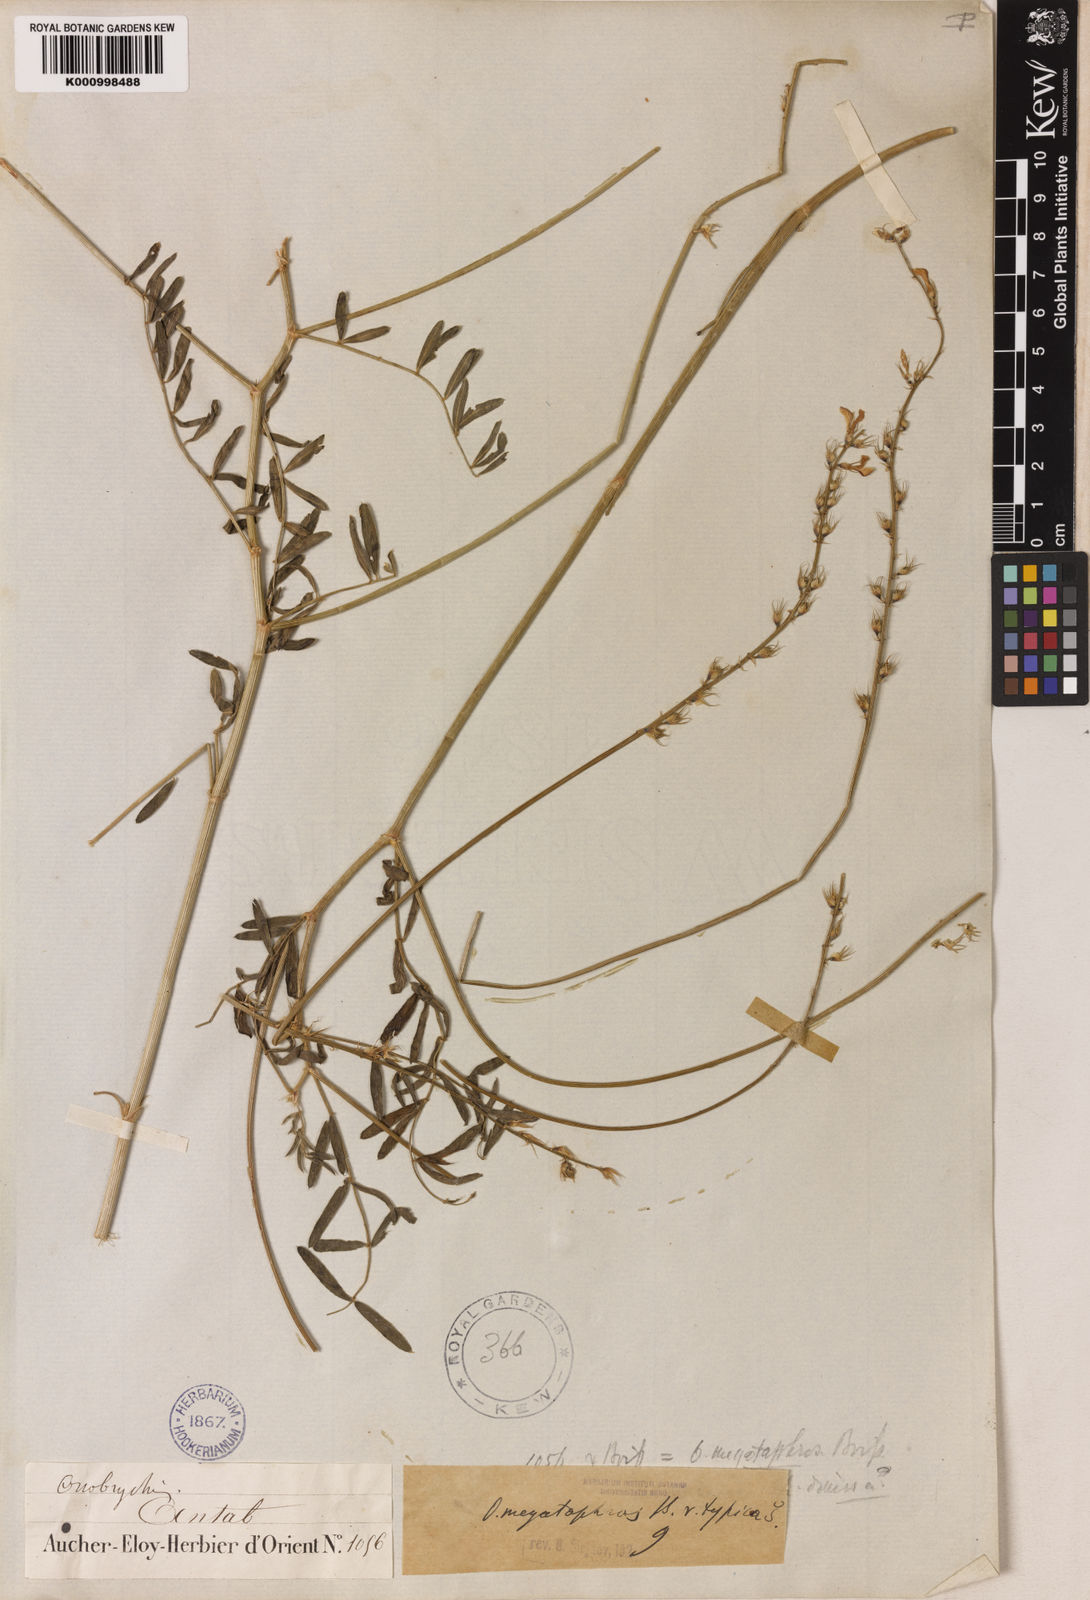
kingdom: Plantae
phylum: Tracheophyta
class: Magnoliopsida
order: Fabales
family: Fabaceae
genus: Onobrychis
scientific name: Onobrychis megataphros
